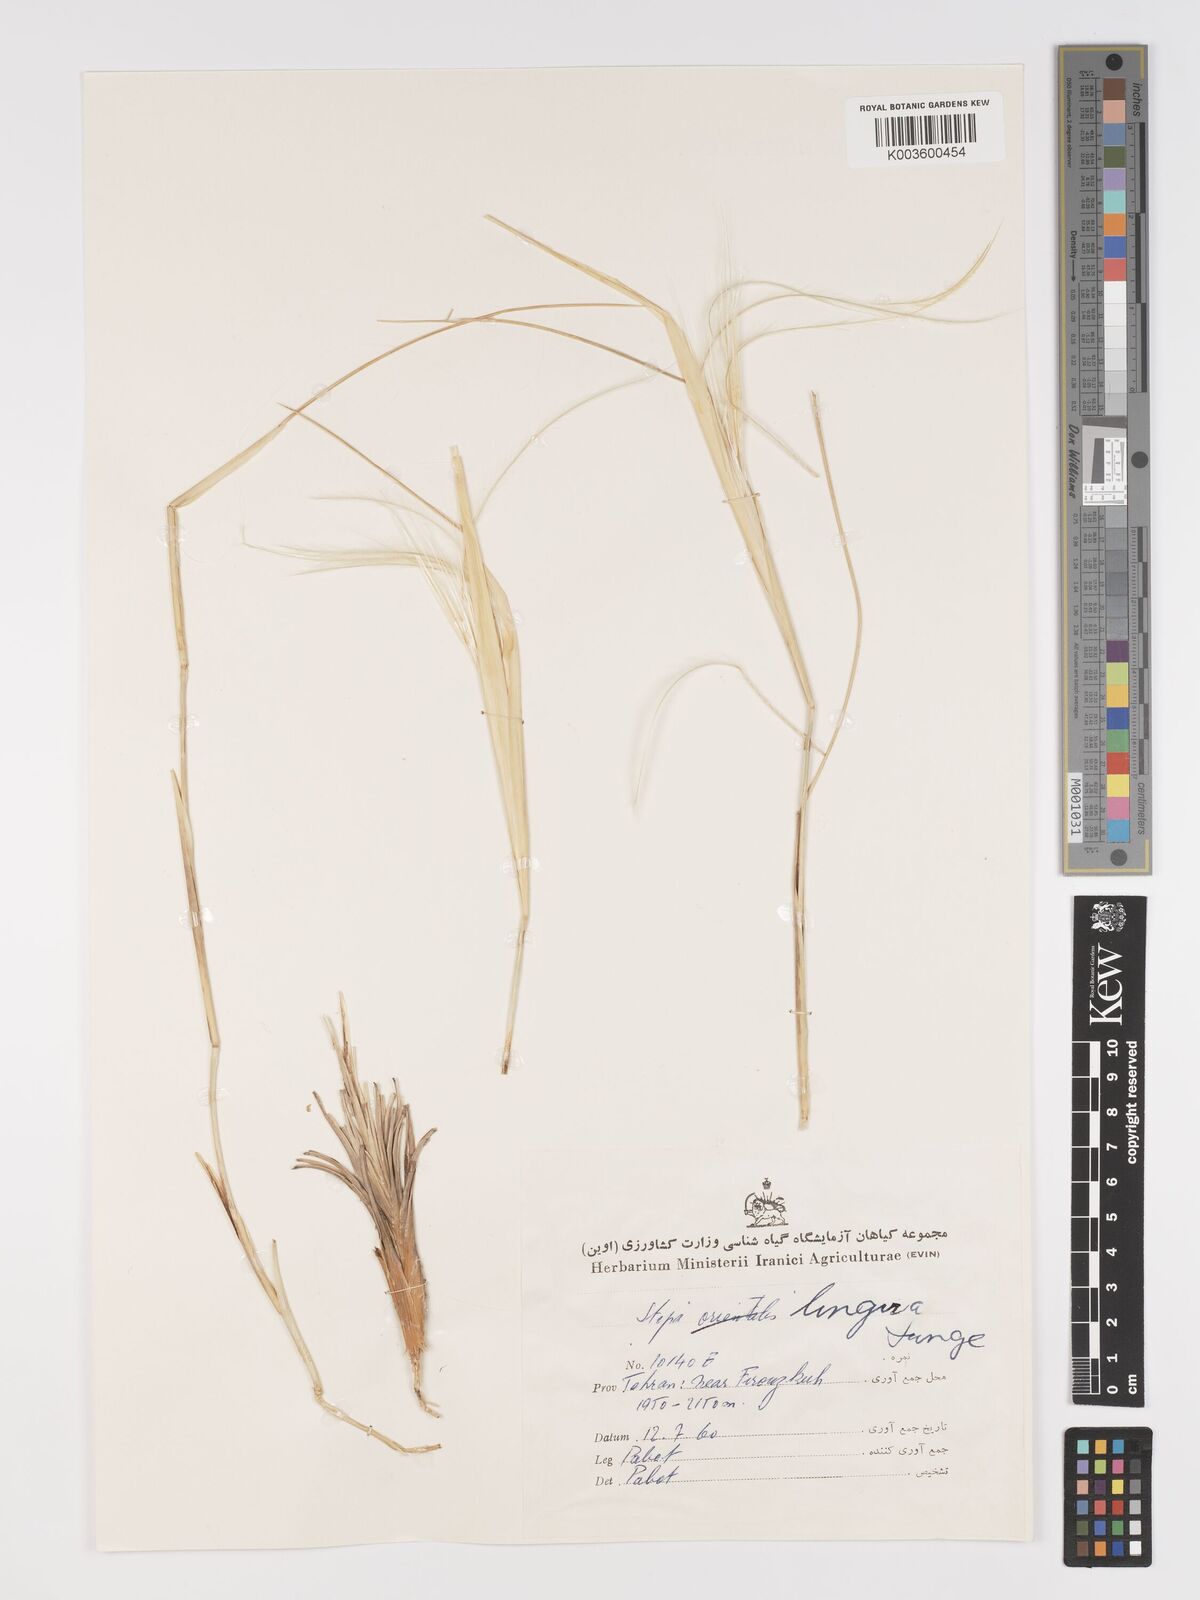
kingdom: Plantae
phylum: Tracheophyta
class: Liliopsida
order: Poales
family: Poaceae
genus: Stipa
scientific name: Stipa lingua
